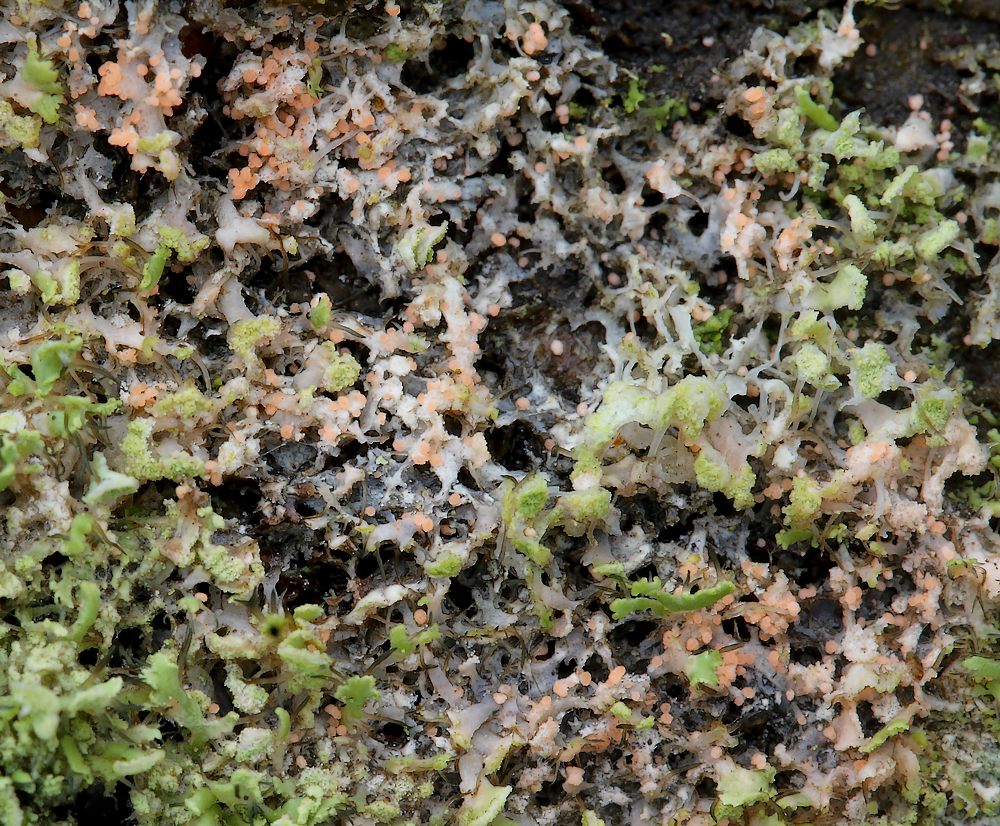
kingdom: Fungi
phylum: Basidiomycota
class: Agaricomycetes
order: Corticiales
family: Corticiaceae
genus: Erythricium
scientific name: Erythricium aurantiacum
